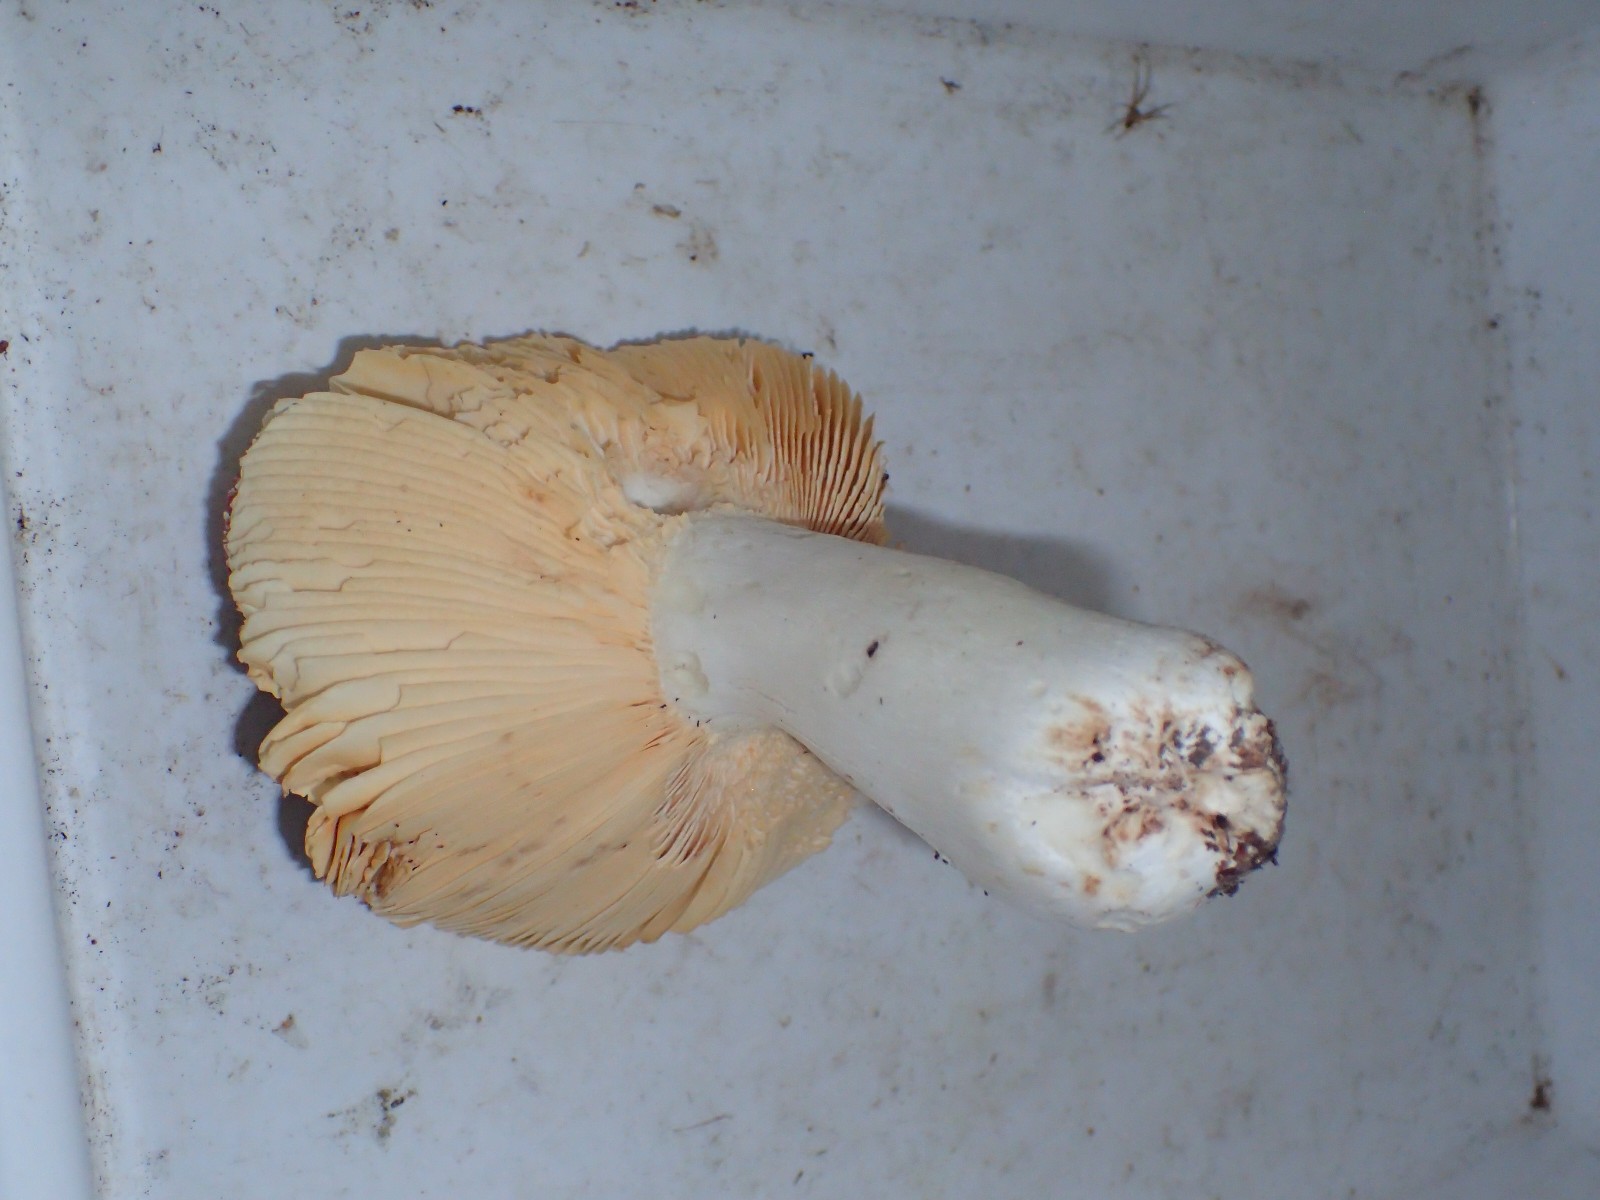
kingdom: Fungi
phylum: Basidiomycota
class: Agaricomycetes
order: Russulales
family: Russulaceae
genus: Russula
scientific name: Russula
